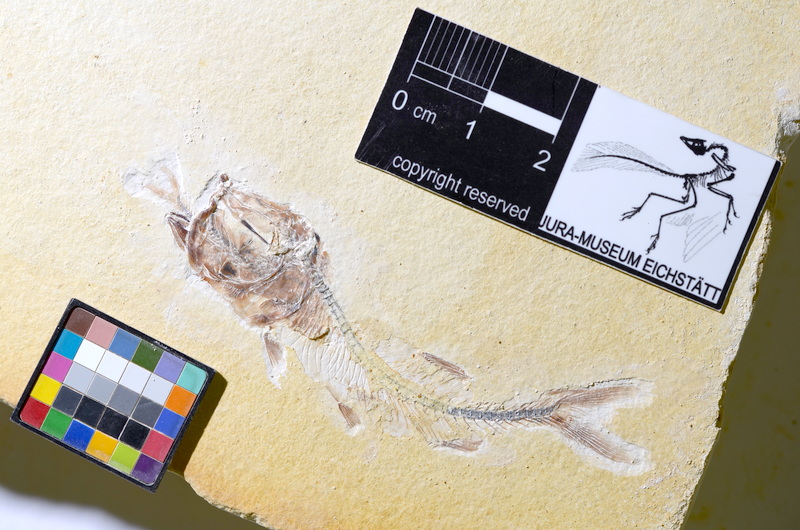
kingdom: Animalia
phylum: Chordata
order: Salmoniformes
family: Orthogonikleithridae
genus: Orthogonikleithrus
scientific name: Orthogonikleithrus hoelli
